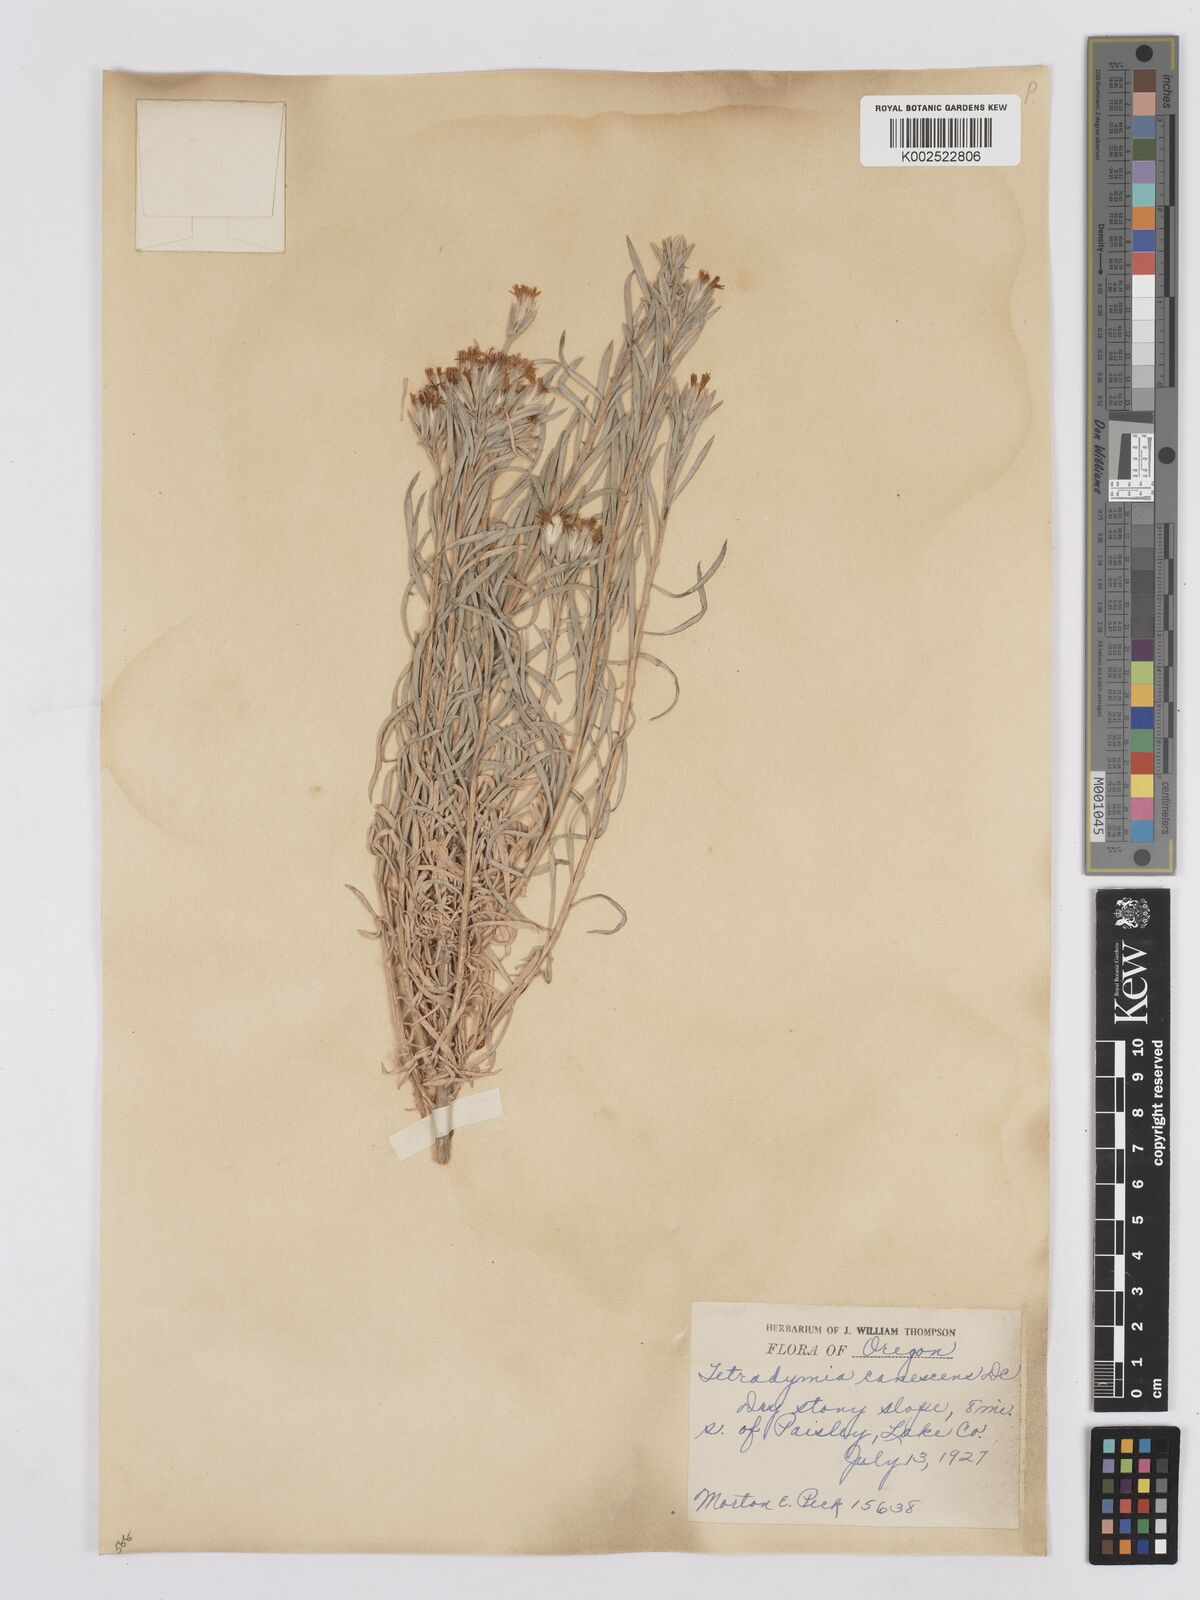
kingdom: Plantae
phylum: Tracheophyta
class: Magnoliopsida
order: Asterales
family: Asteraceae
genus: Tetradymia
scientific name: Tetradymia canescens
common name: Spineless horsebrush
